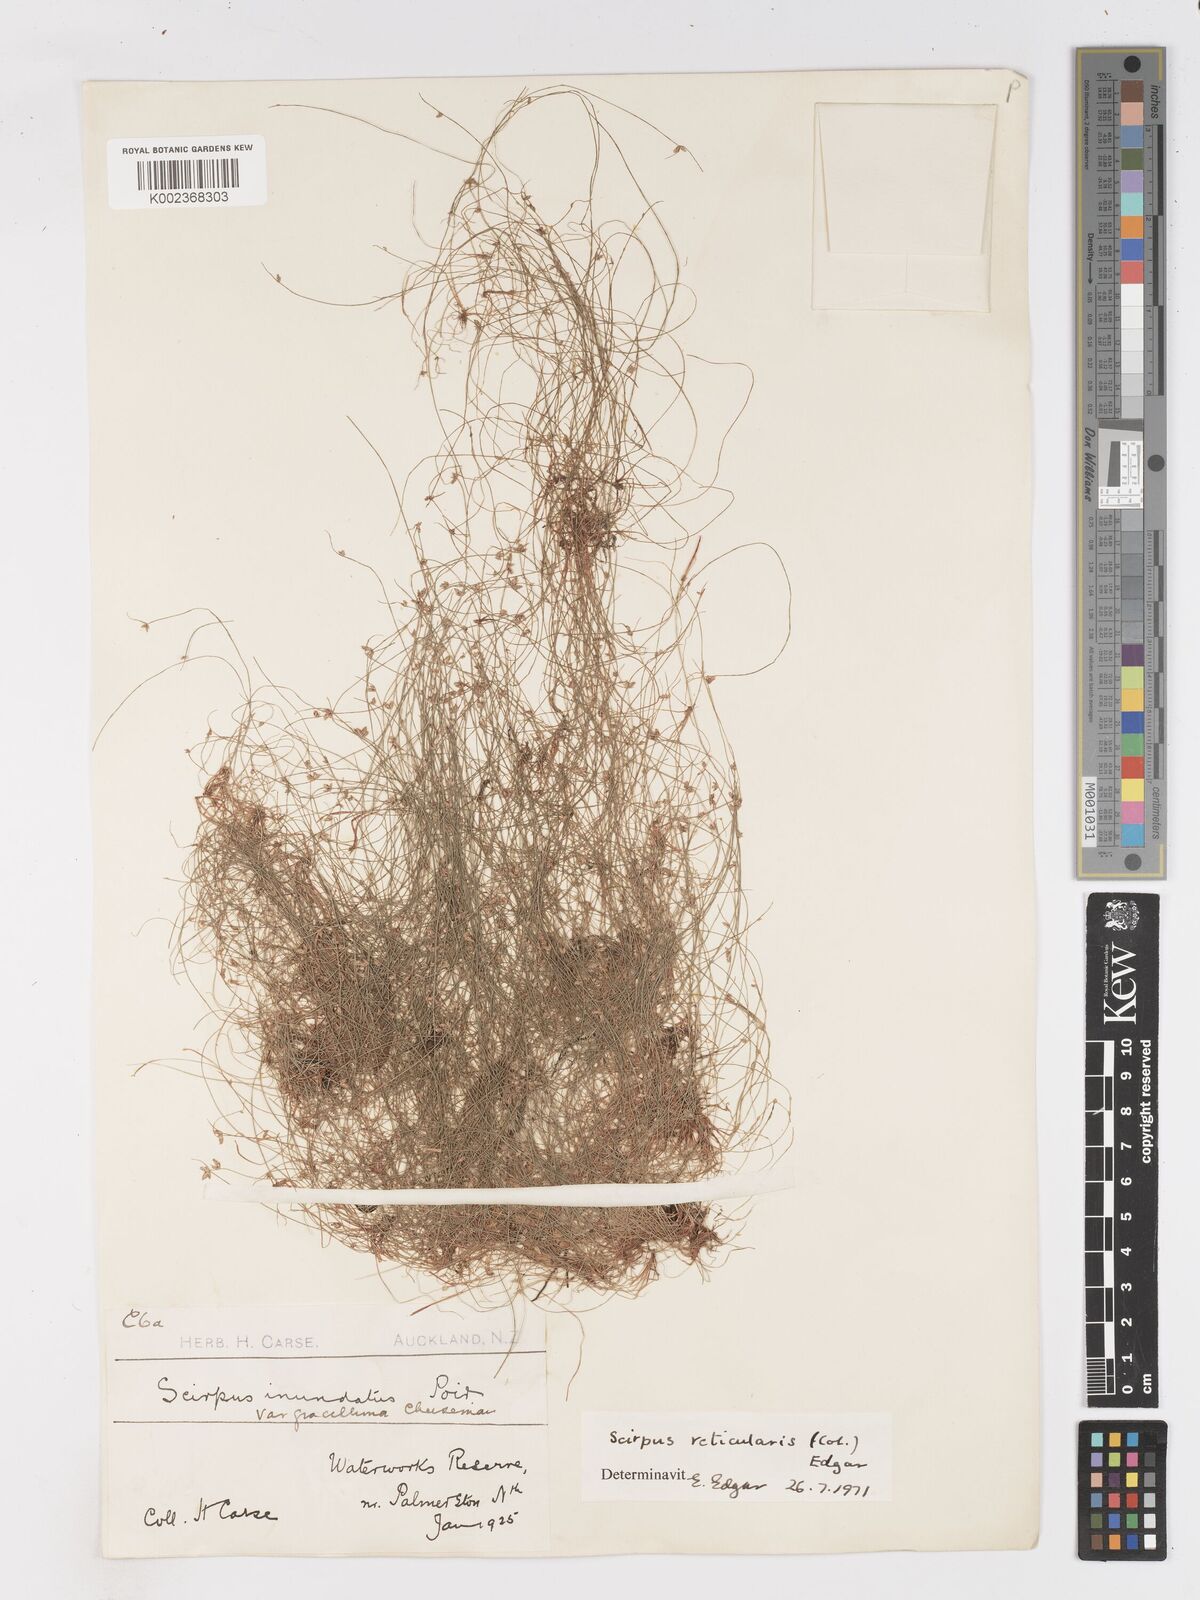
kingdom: Plantae
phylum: Tracheophyta
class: Liliopsida
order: Poales
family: Cyperaceae
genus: Isolepis
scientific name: Isolepis reticularis
